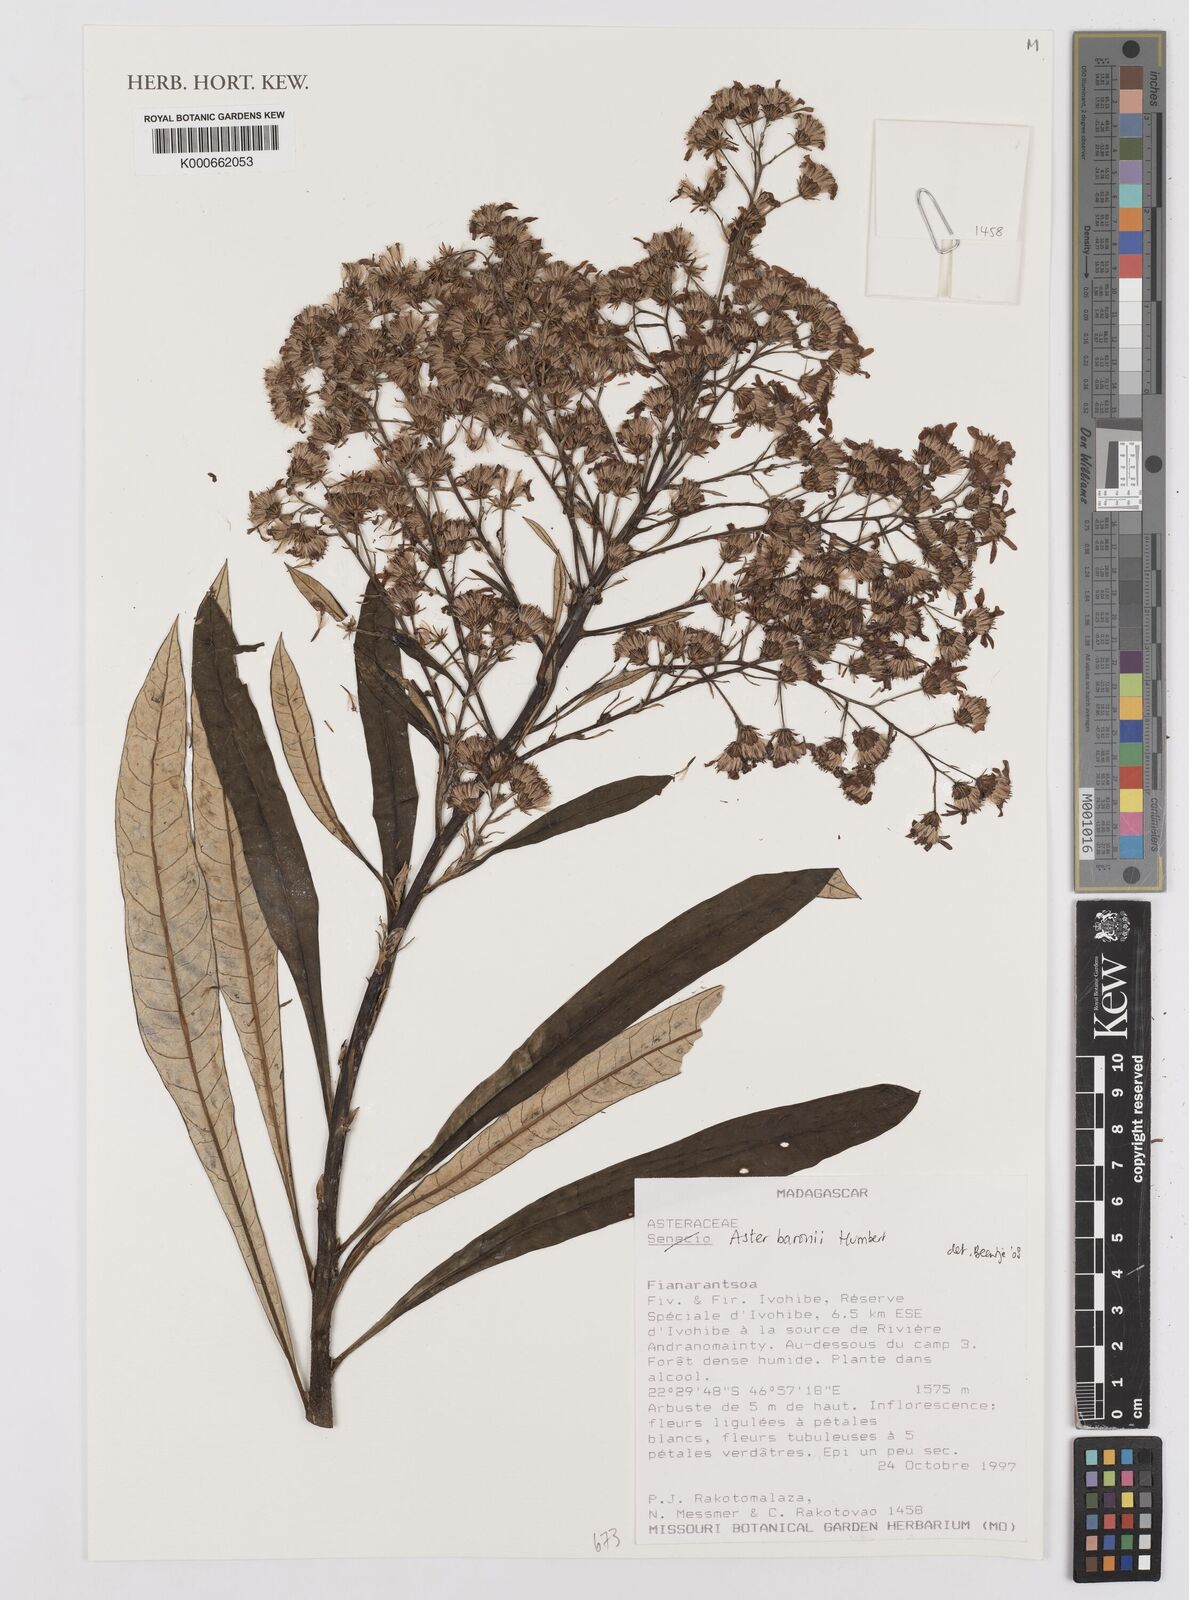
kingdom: Plantae
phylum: Tracheophyta
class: Magnoliopsida
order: Asterales
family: Asteraceae
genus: Madagaster
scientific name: Madagaster senecionoides
